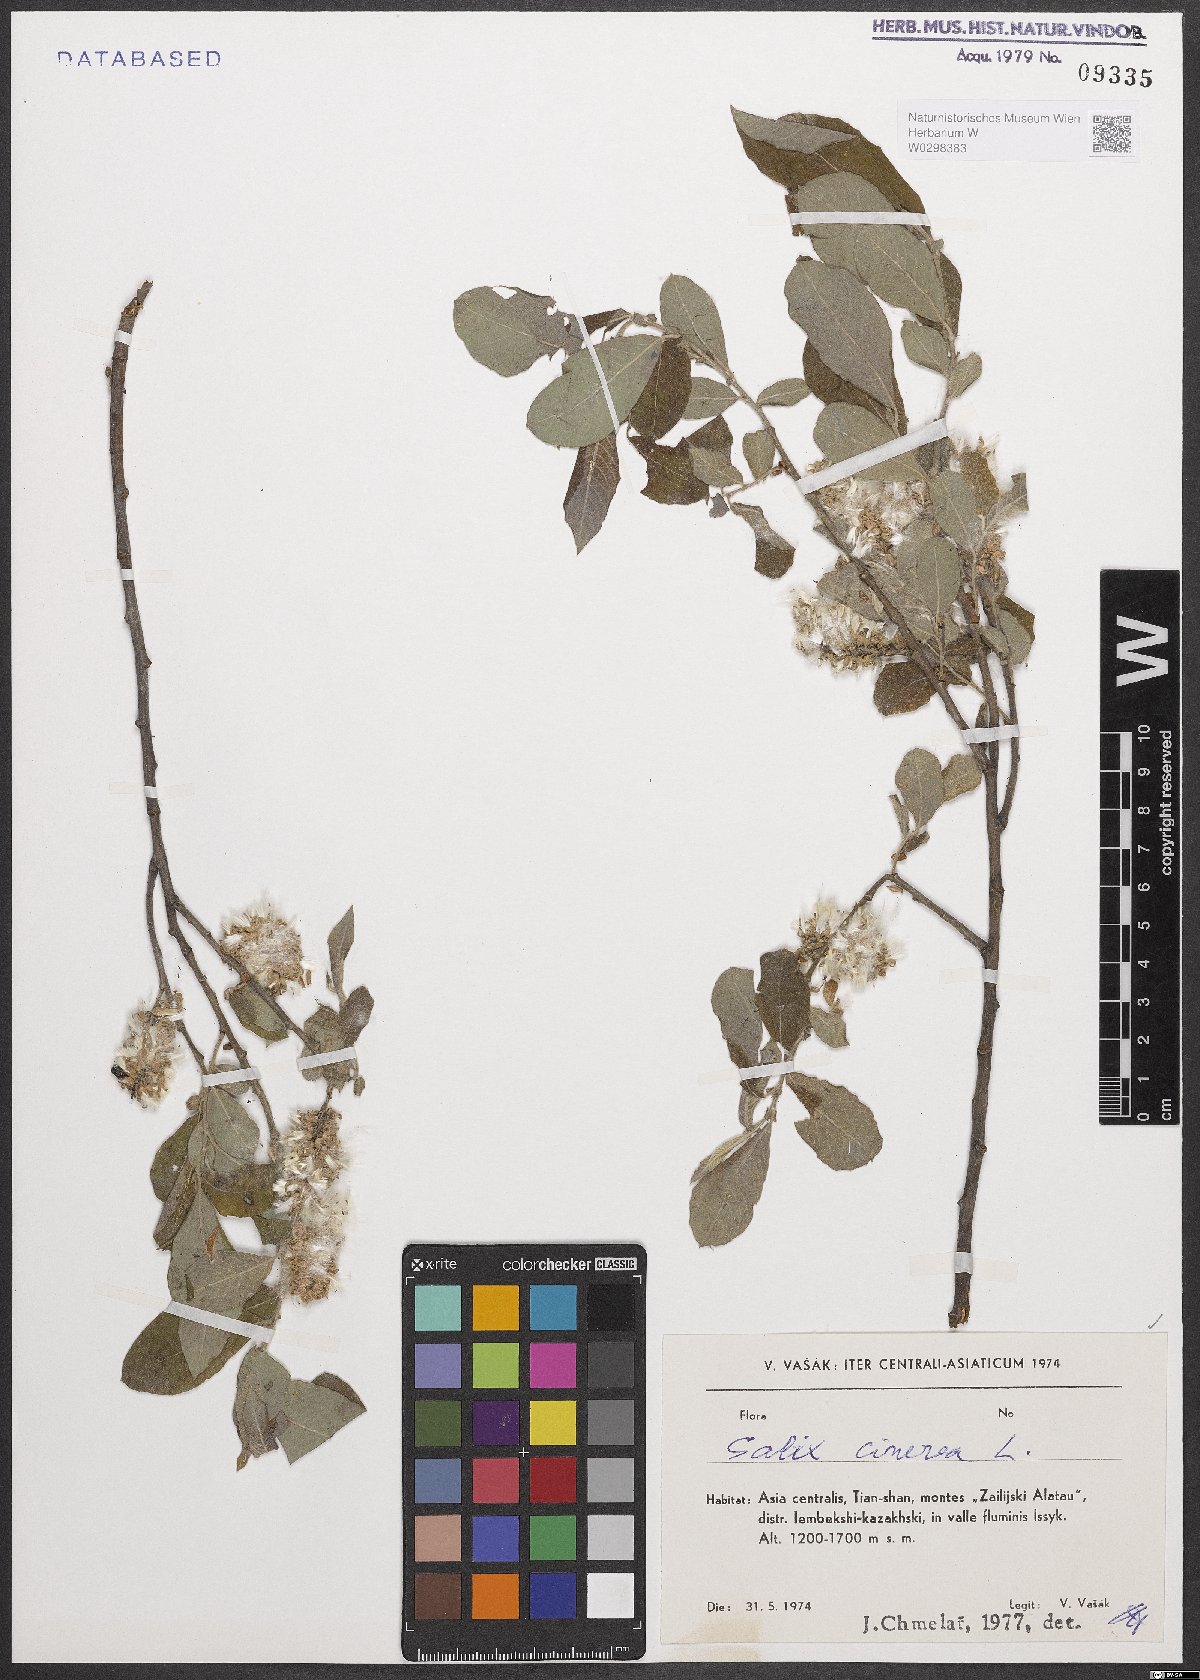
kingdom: Plantae
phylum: Tracheophyta
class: Magnoliopsida
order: Malpighiales
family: Salicaceae
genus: Salix
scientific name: Salix cinerea
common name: Common sallow
